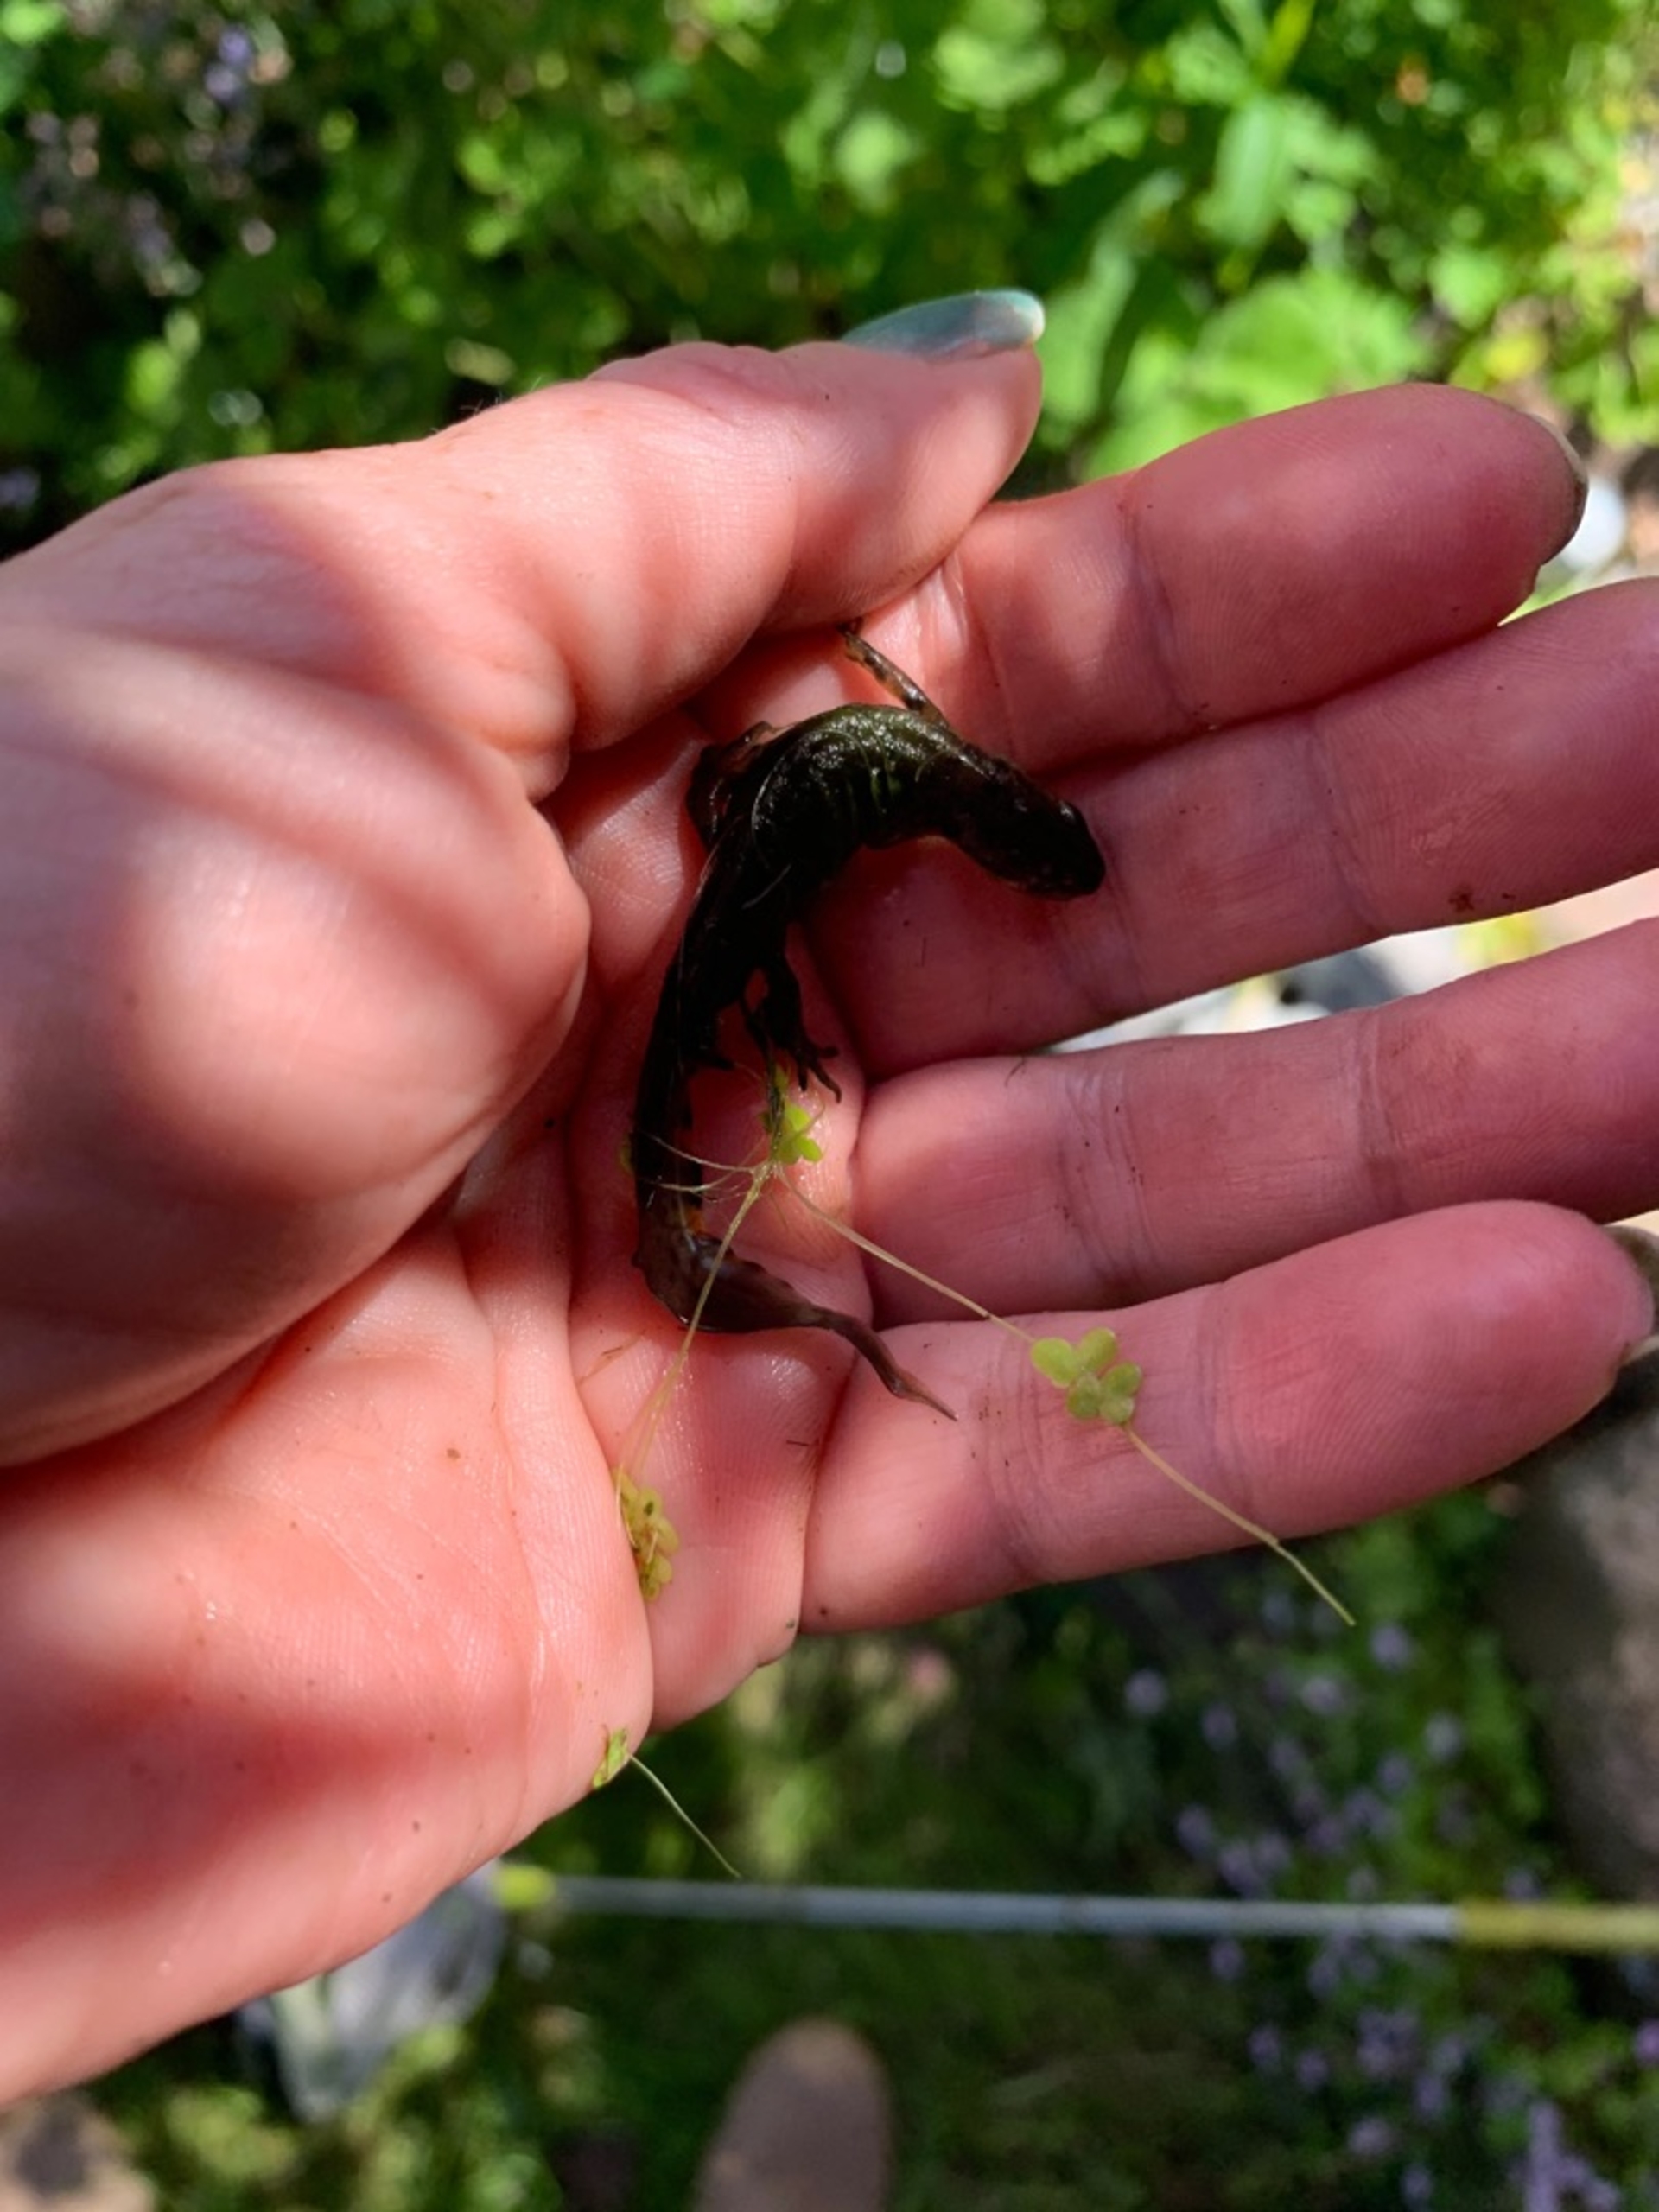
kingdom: Animalia
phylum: Chordata
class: Amphibia
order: Caudata
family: Salamandridae
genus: Lissotriton
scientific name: Lissotriton vulgaris
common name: Lille vandsalamander
